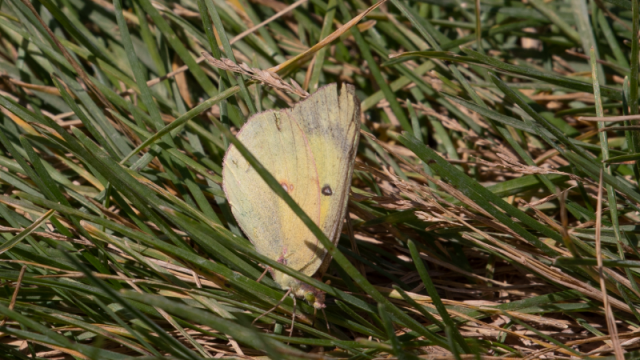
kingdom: Animalia
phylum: Arthropoda
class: Insecta
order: Lepidoptera
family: Pieridae
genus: Colias
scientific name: Colias meadii
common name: Mead's Sulphur
